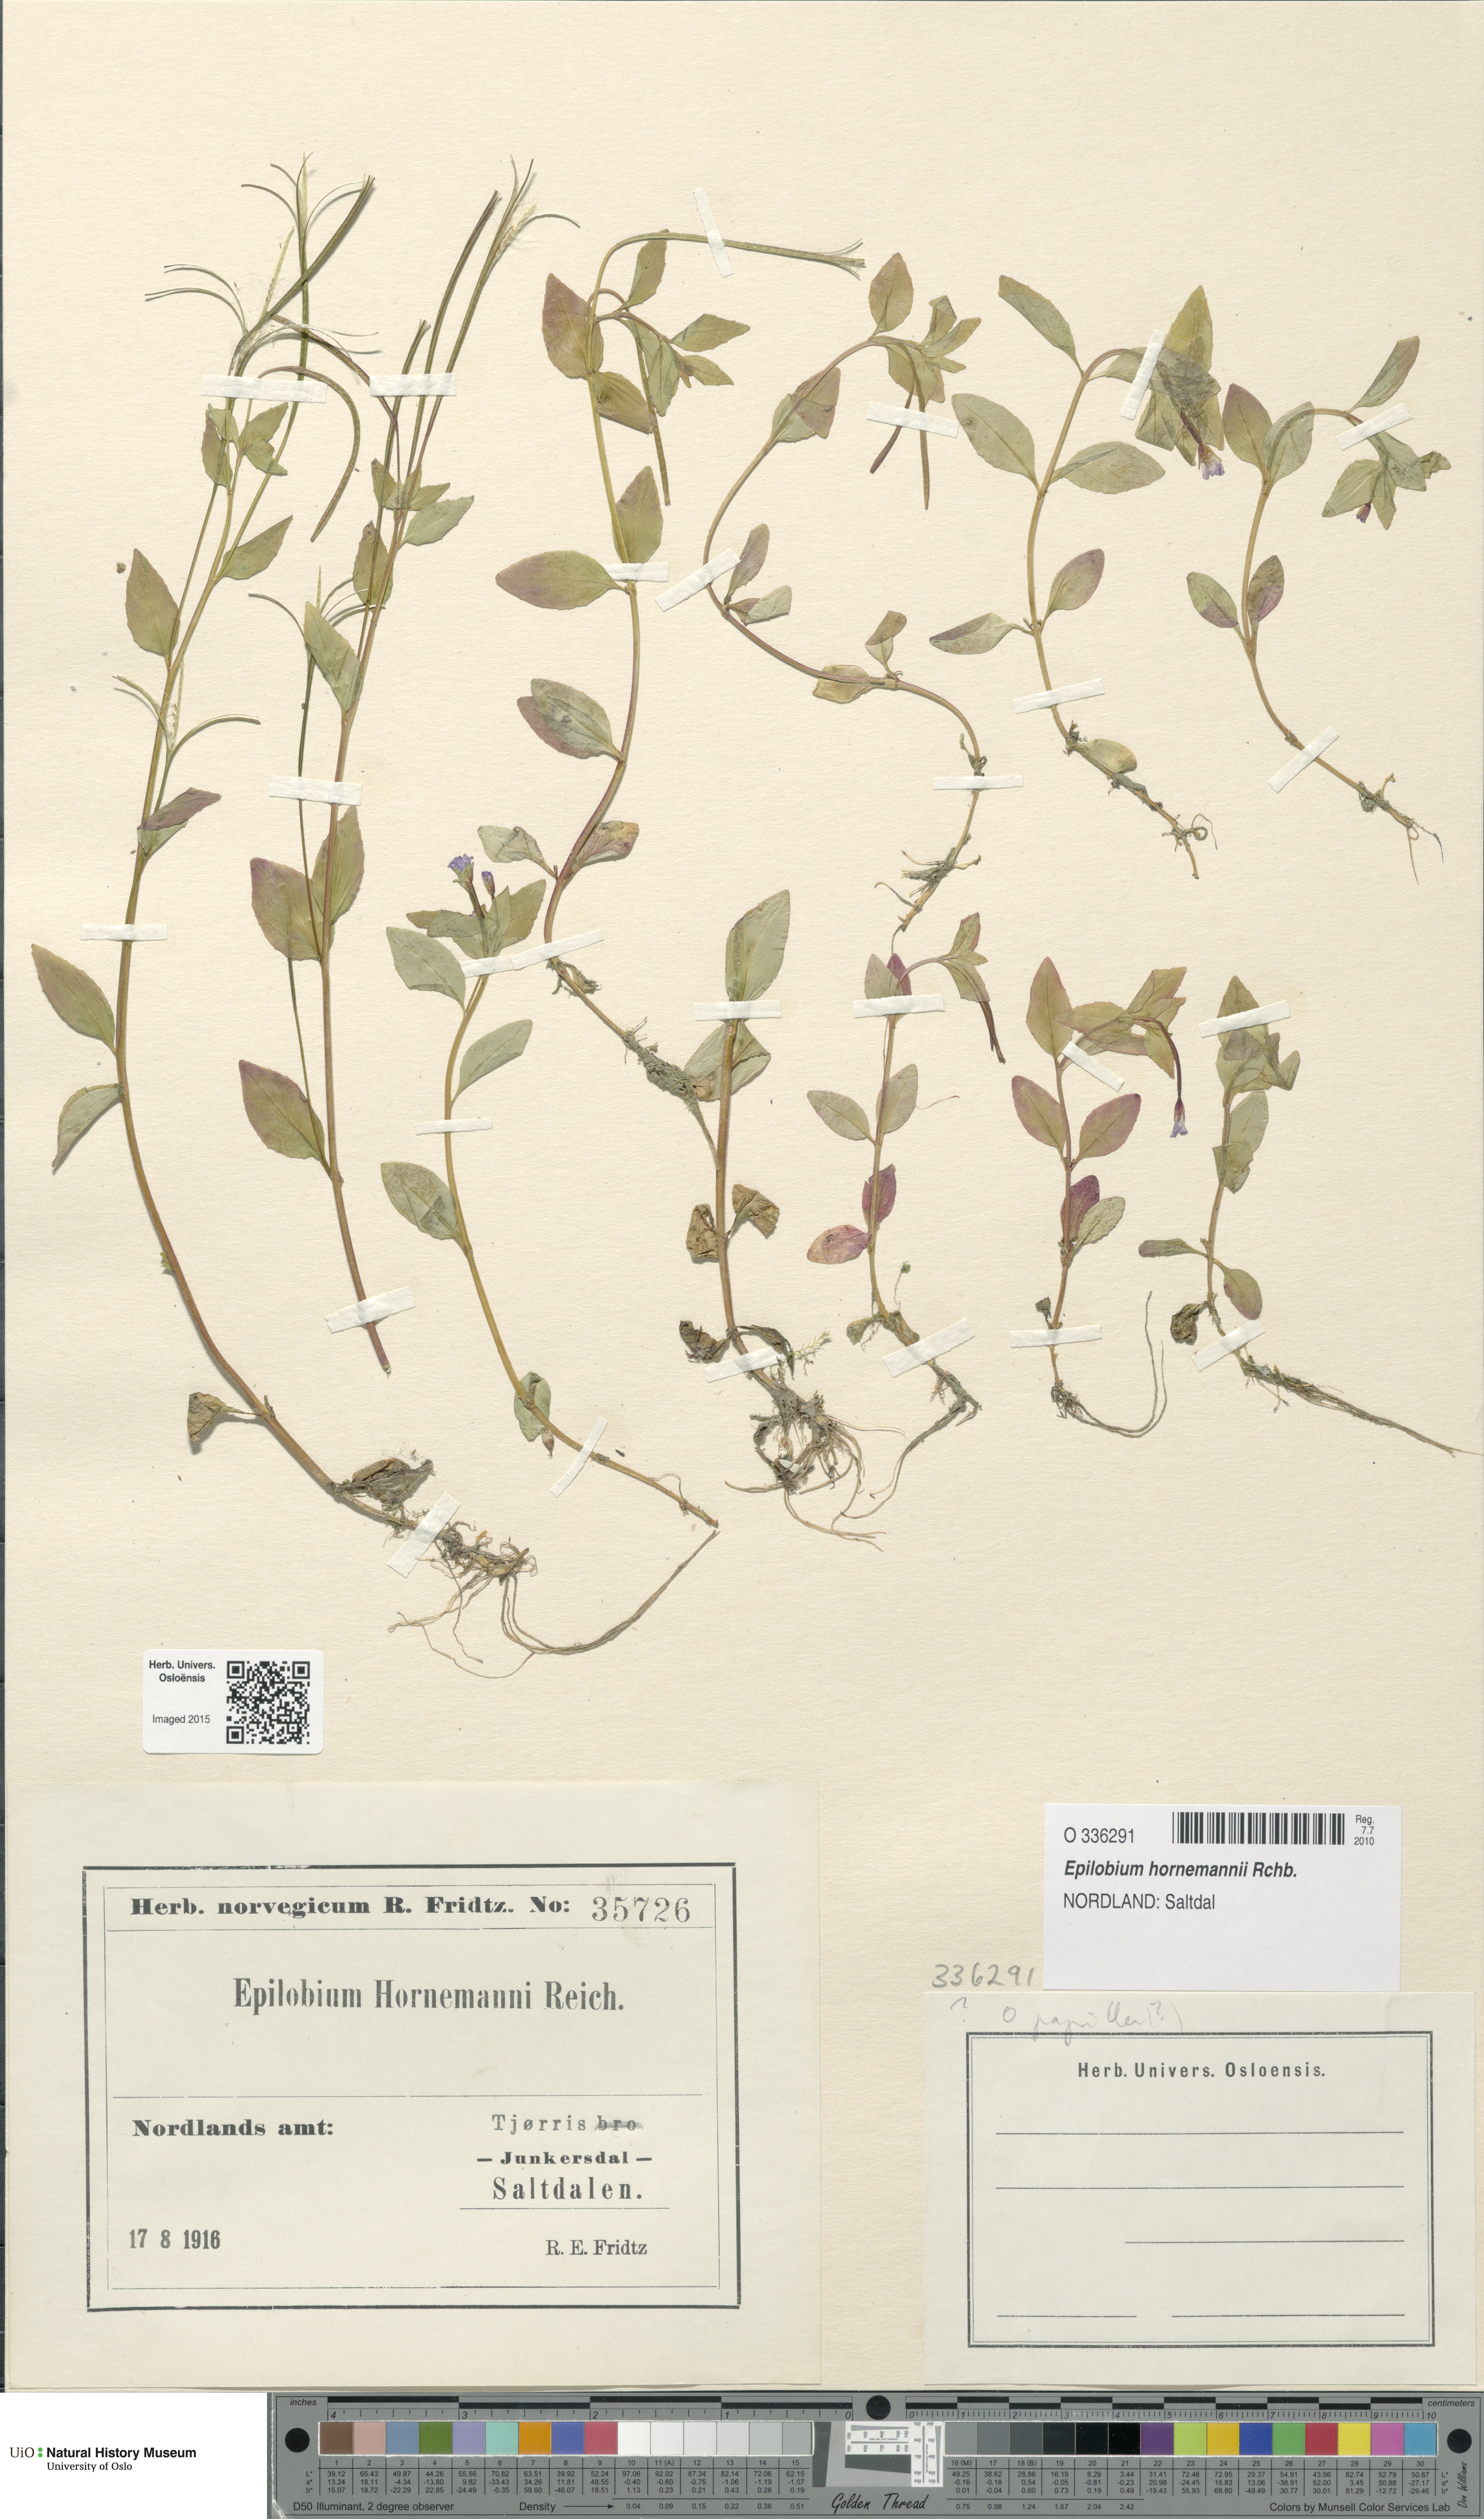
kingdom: Plantae
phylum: Tracheophyta
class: Magnoliopsida
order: Myrtales
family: Onagraceae
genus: Epilobium
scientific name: Epilobium hornemannii
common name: Hornemann's willowherb
